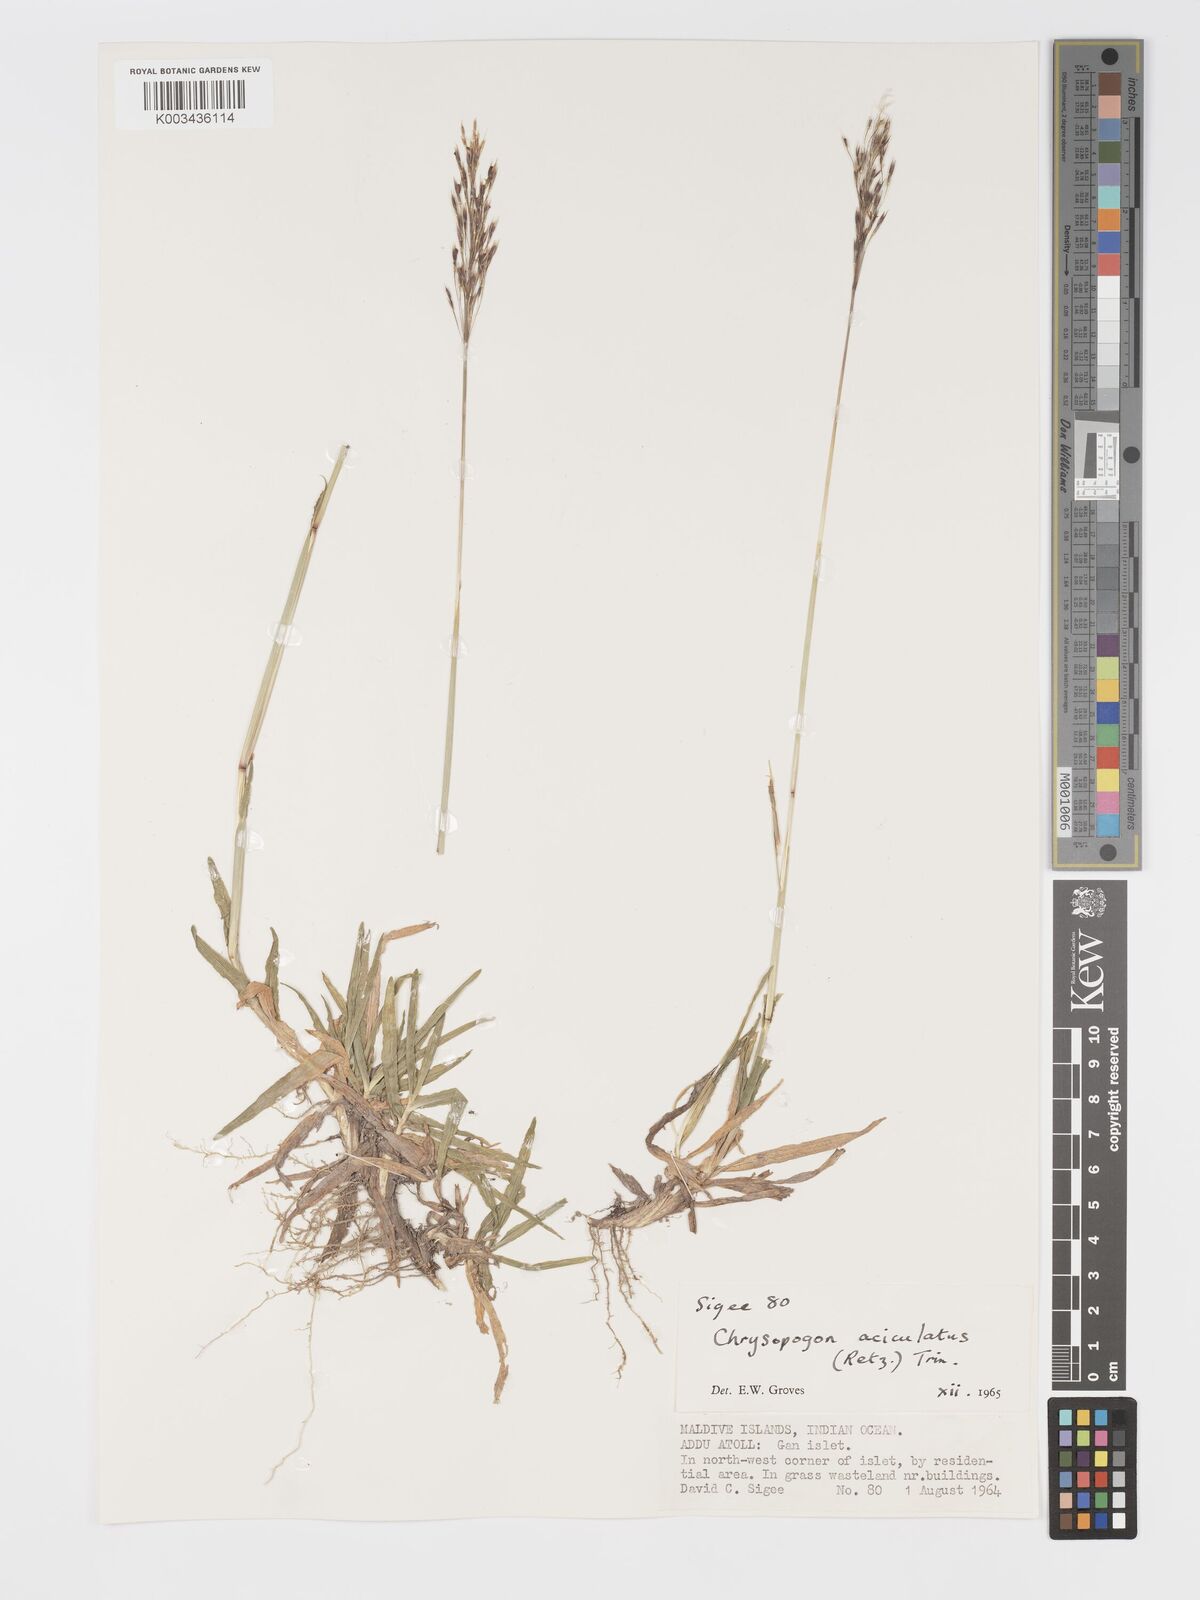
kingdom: Plantae
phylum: Tracheophyta
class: Liliopsida
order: Poales
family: Poaceae
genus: Chrysopogon
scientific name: Chrysopogon aciculatus
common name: Pilipiliula
